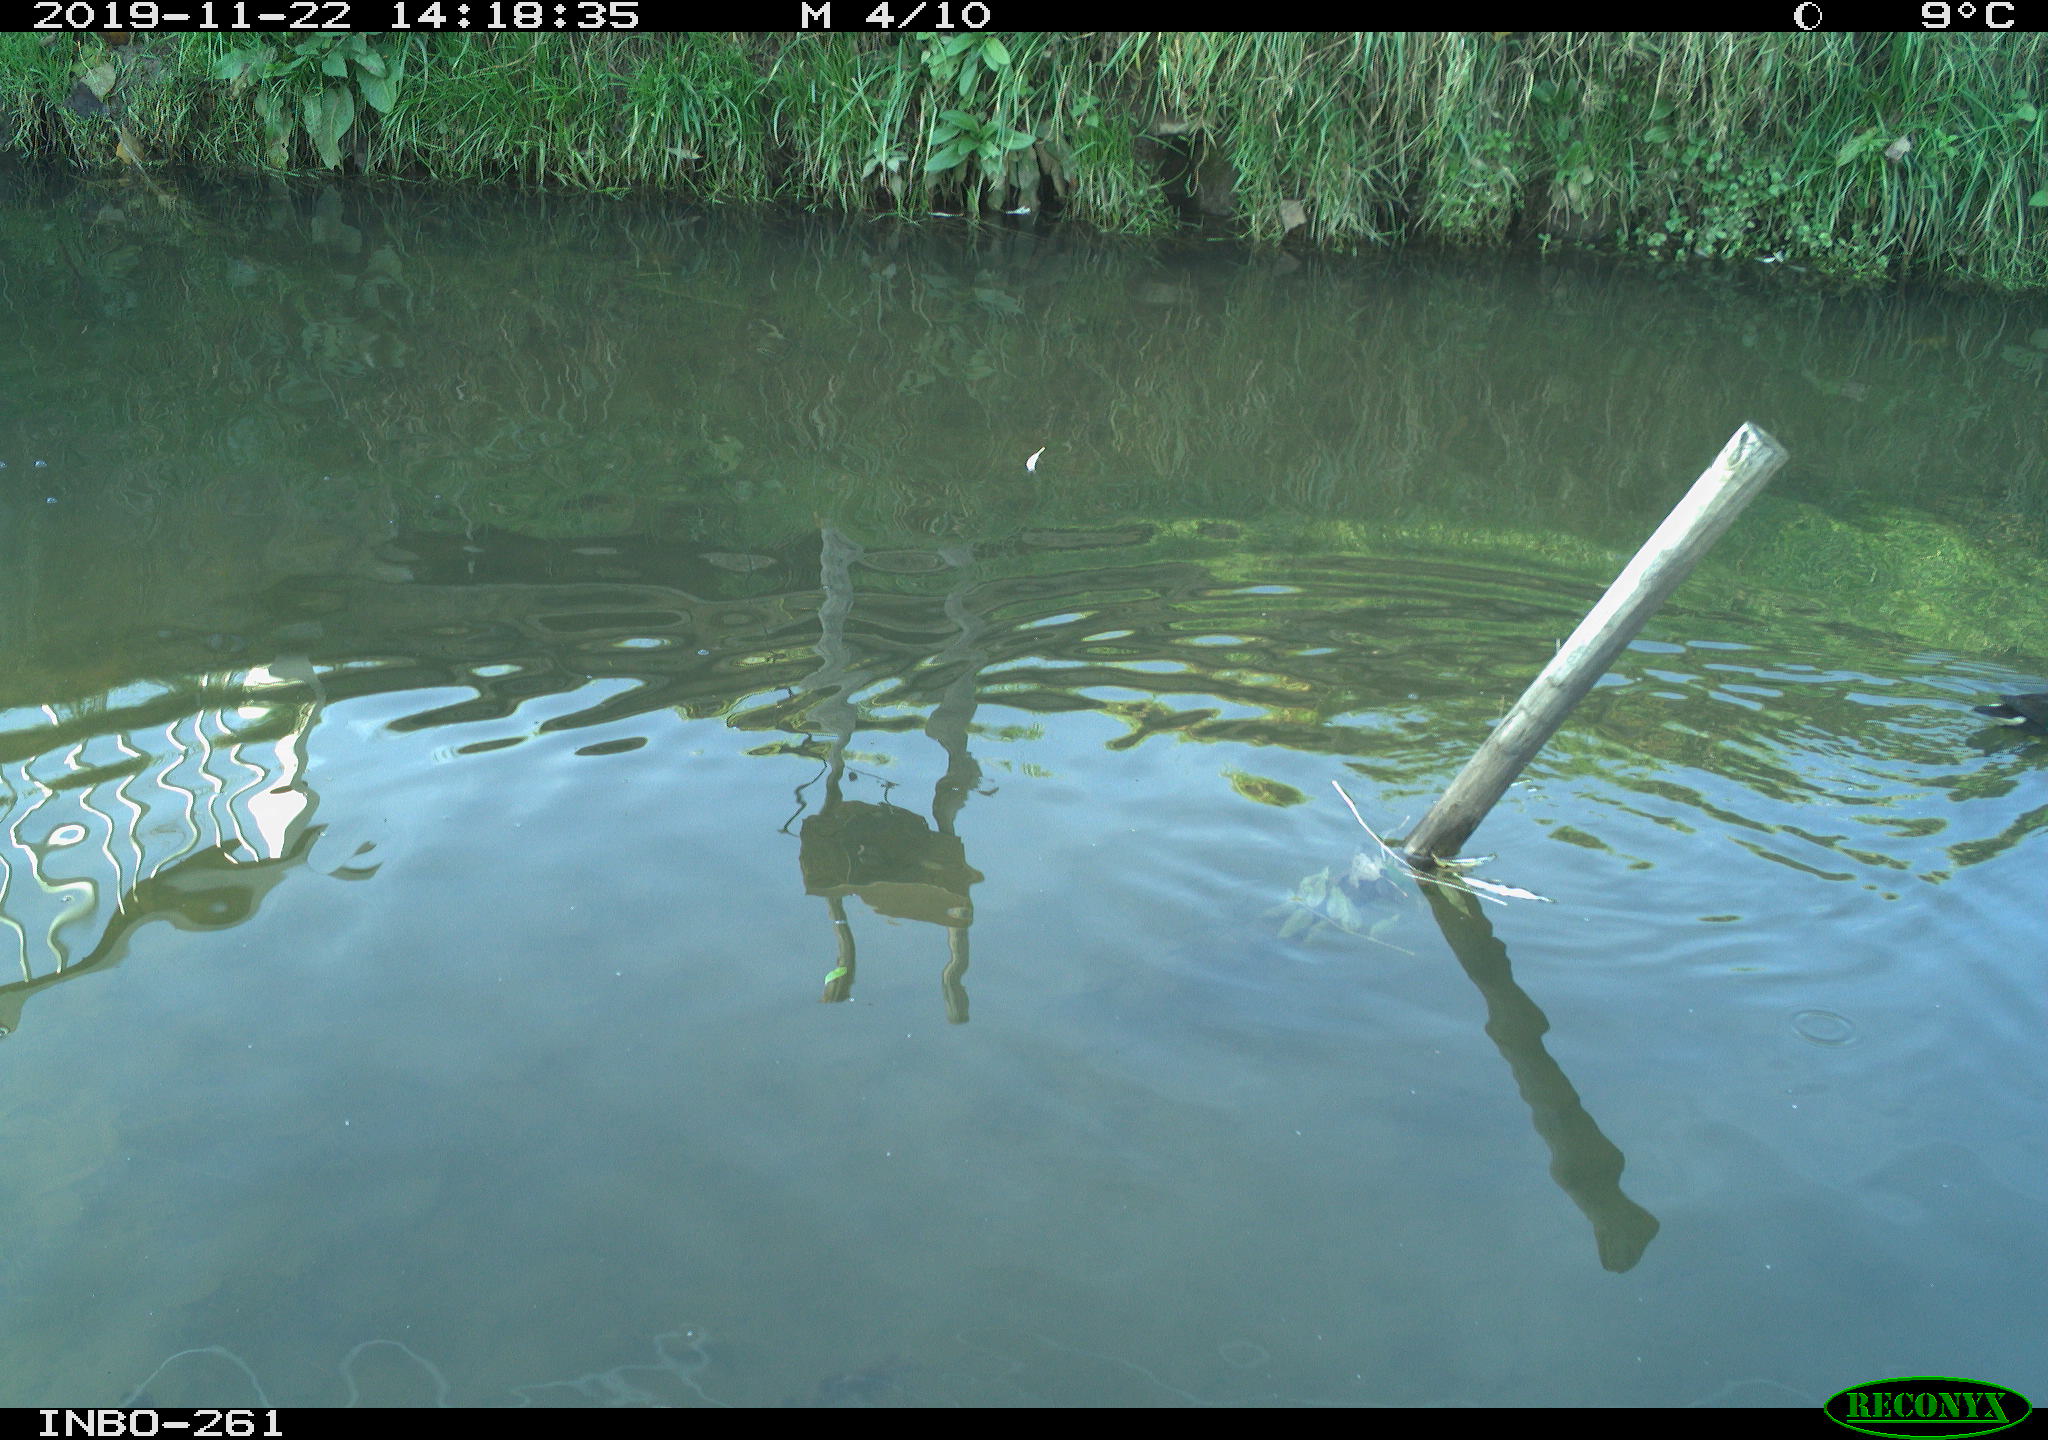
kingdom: Animalia
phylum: Chordata
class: Aves
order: Gruiformes
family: Rallidae
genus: Gallinula
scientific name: Gallinula chloropus
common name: Common moorhen
